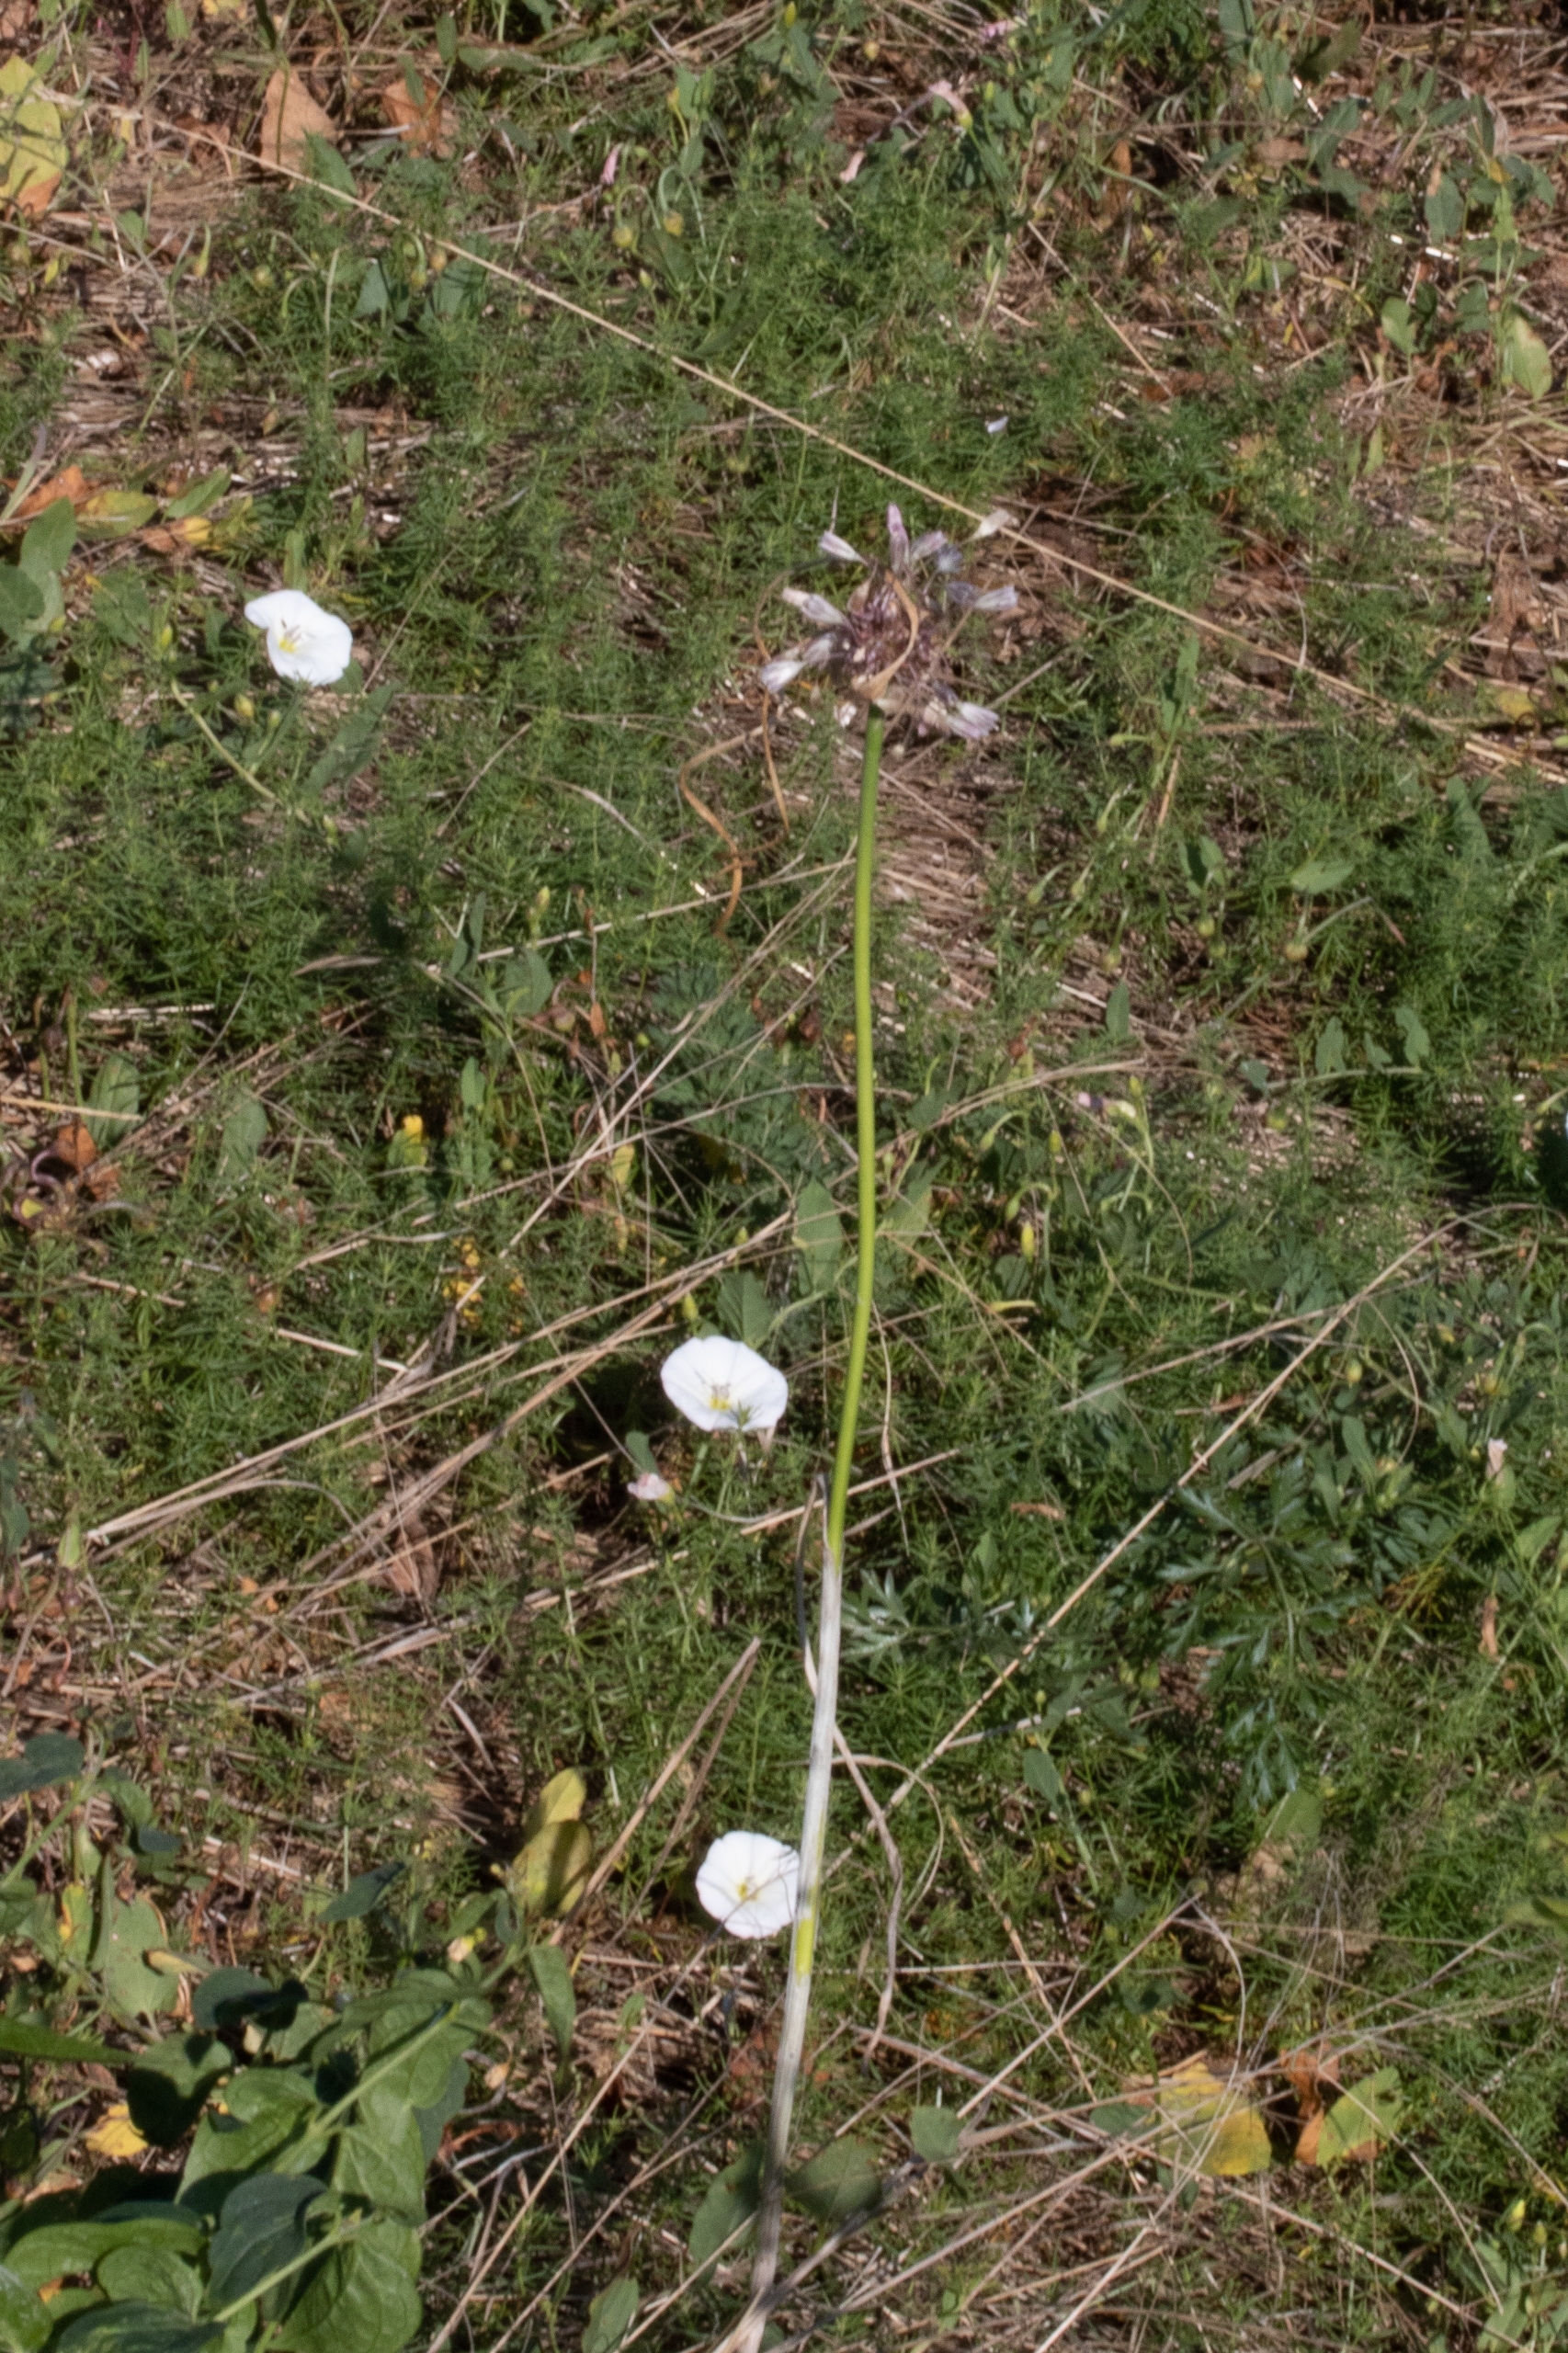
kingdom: Plantae
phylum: Tracheophyta
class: Liliopsida
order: Asparagales
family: Amaryllidaceae
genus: Allium
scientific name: Allium oleraceum
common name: Vild løg
